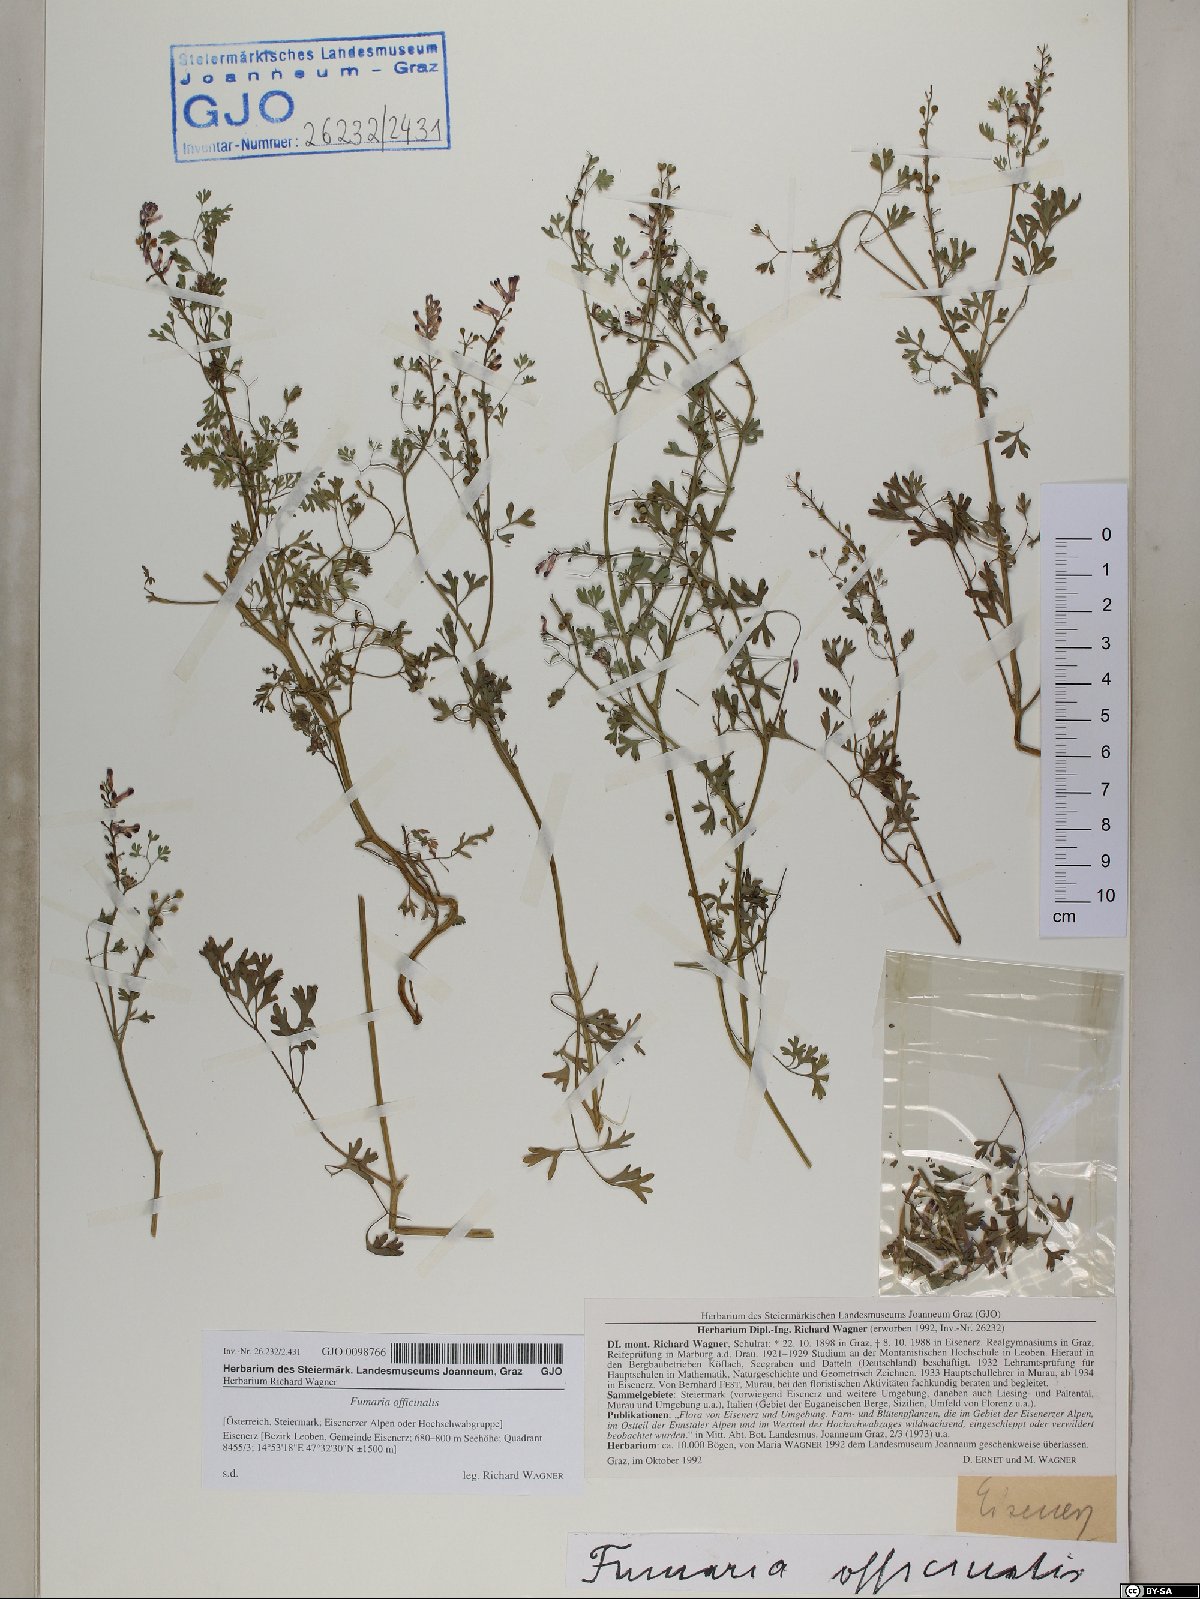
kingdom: Plantae
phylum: Tracheophyta
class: Magnoliopsida
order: Ranunculales
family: Papaveraceae
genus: Fumaria
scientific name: Fumaria officinalis
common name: Common fumitory
